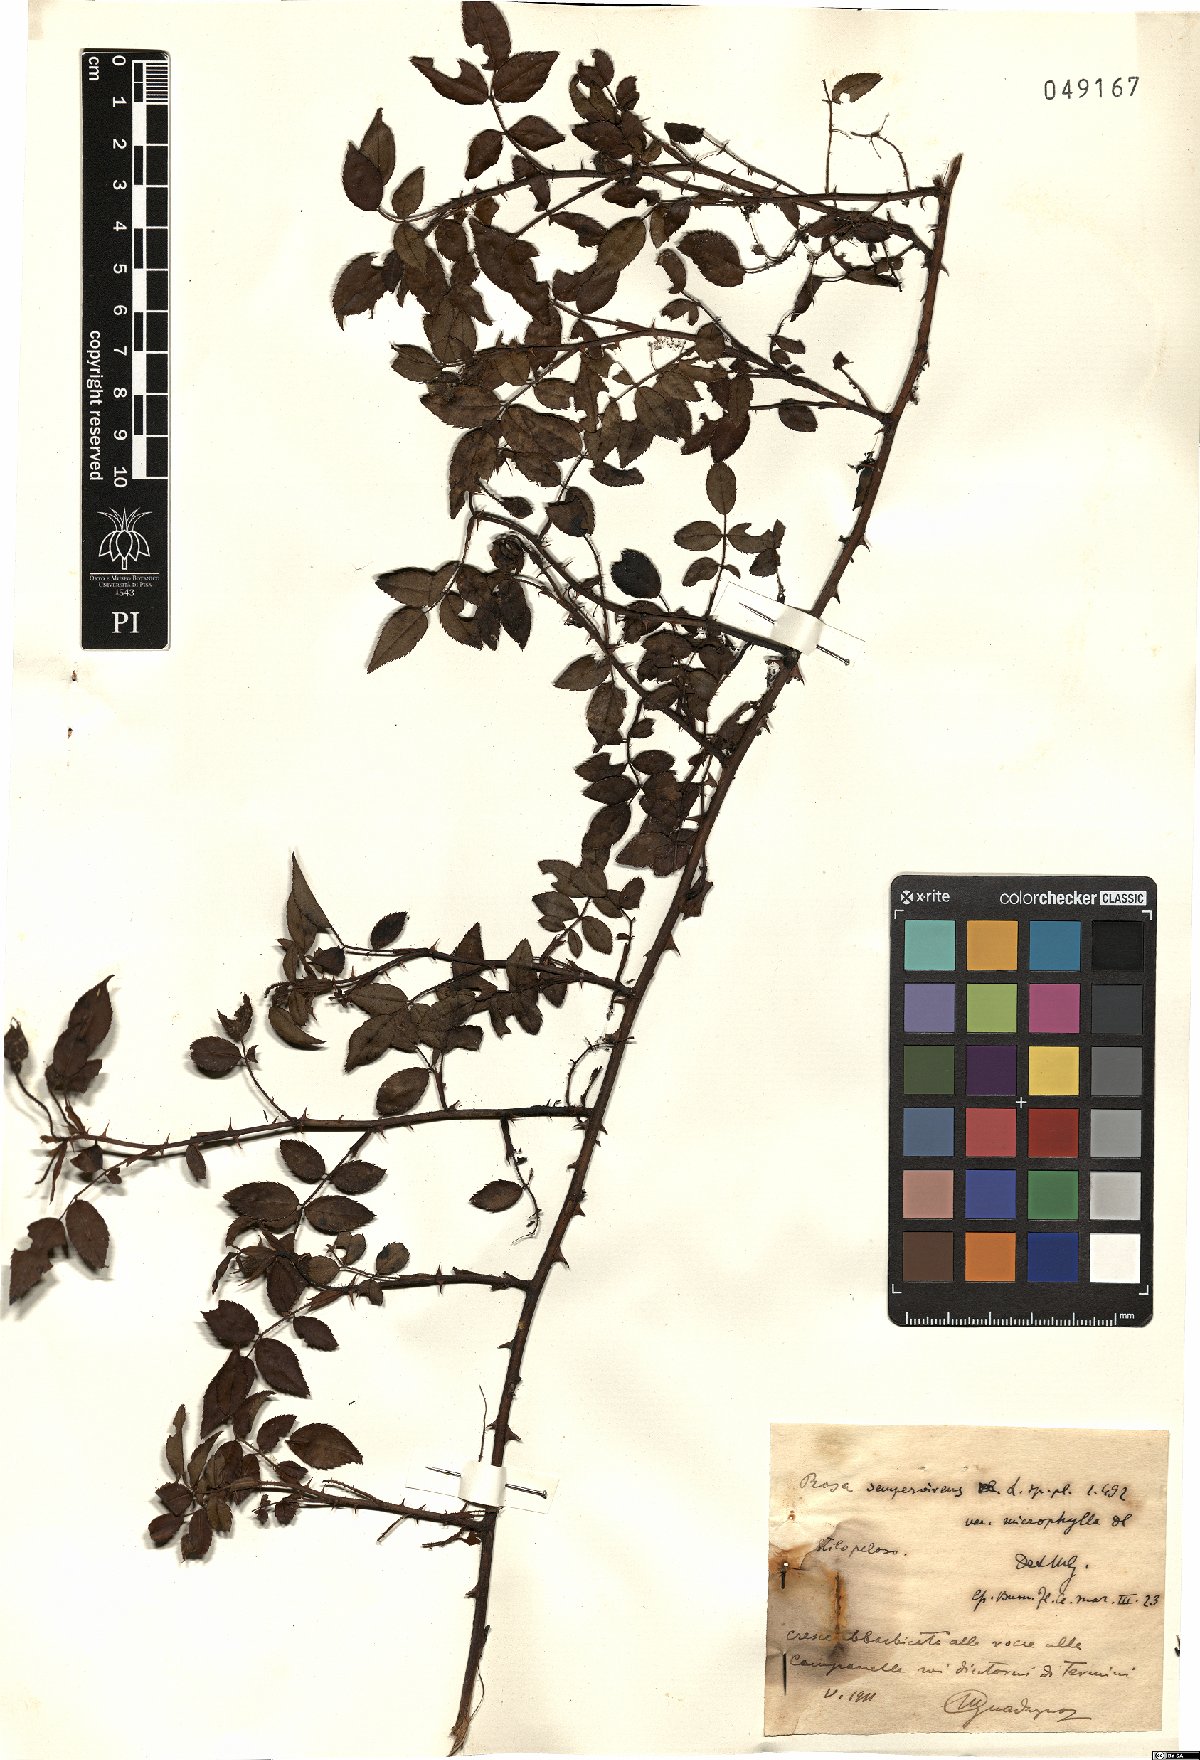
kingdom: Plantae
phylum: Tracheophyta
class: Magnoliopsida
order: Rosales
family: Rosaceae
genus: Rosa
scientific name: Rosa sempervirens
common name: Evergreen rose
